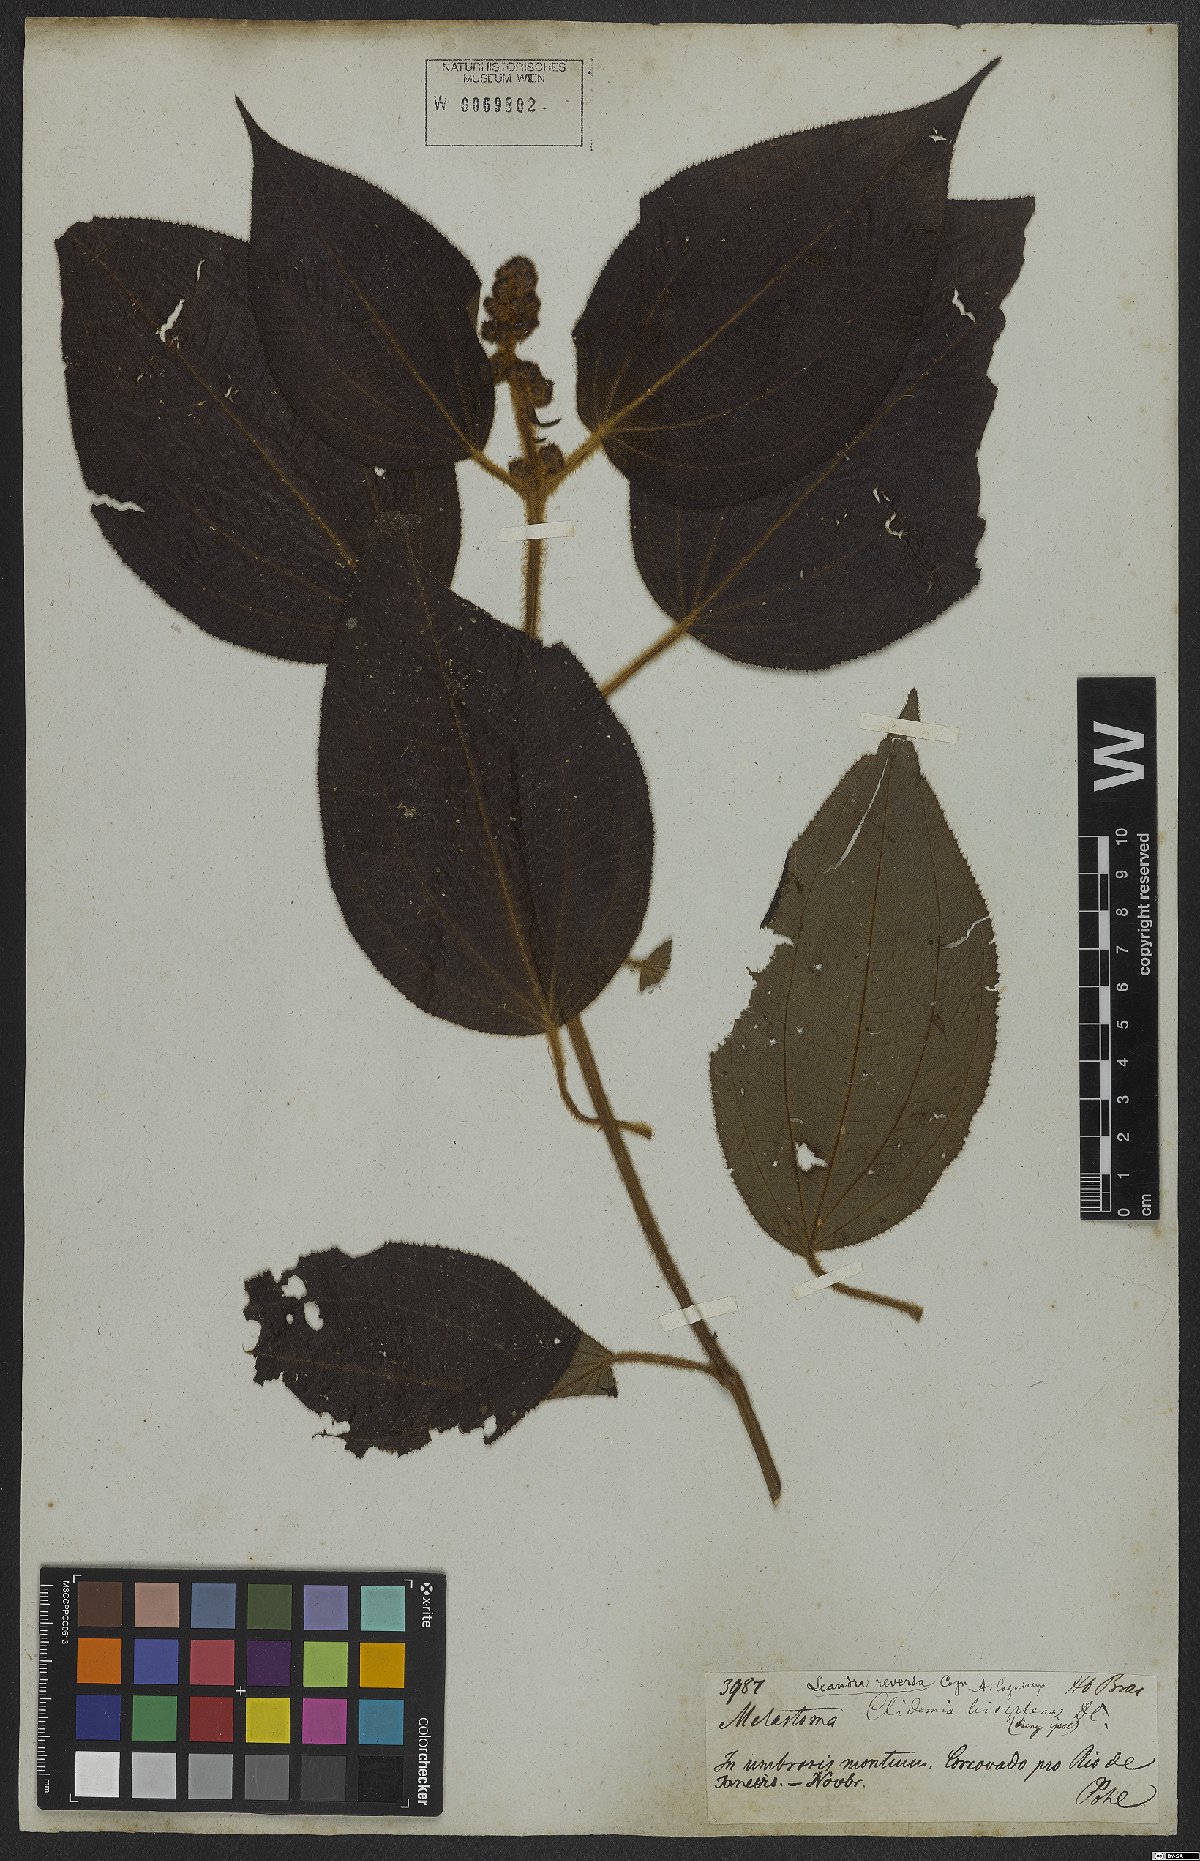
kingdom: Plantae
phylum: Tracheophyta
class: Magnoliopsida
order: Myrtales
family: Melastomataceae
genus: Miconia
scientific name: Miconia reversa
